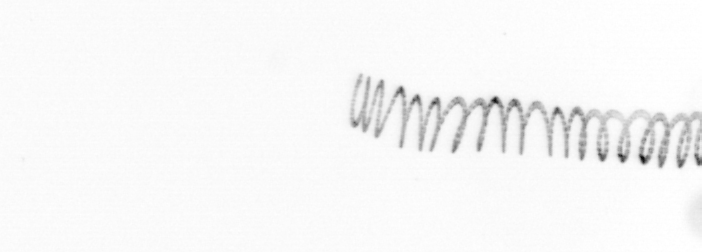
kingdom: Chromista
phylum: Ochrophyta
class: Bacillariophyceae
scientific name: Bacillariophyceae
